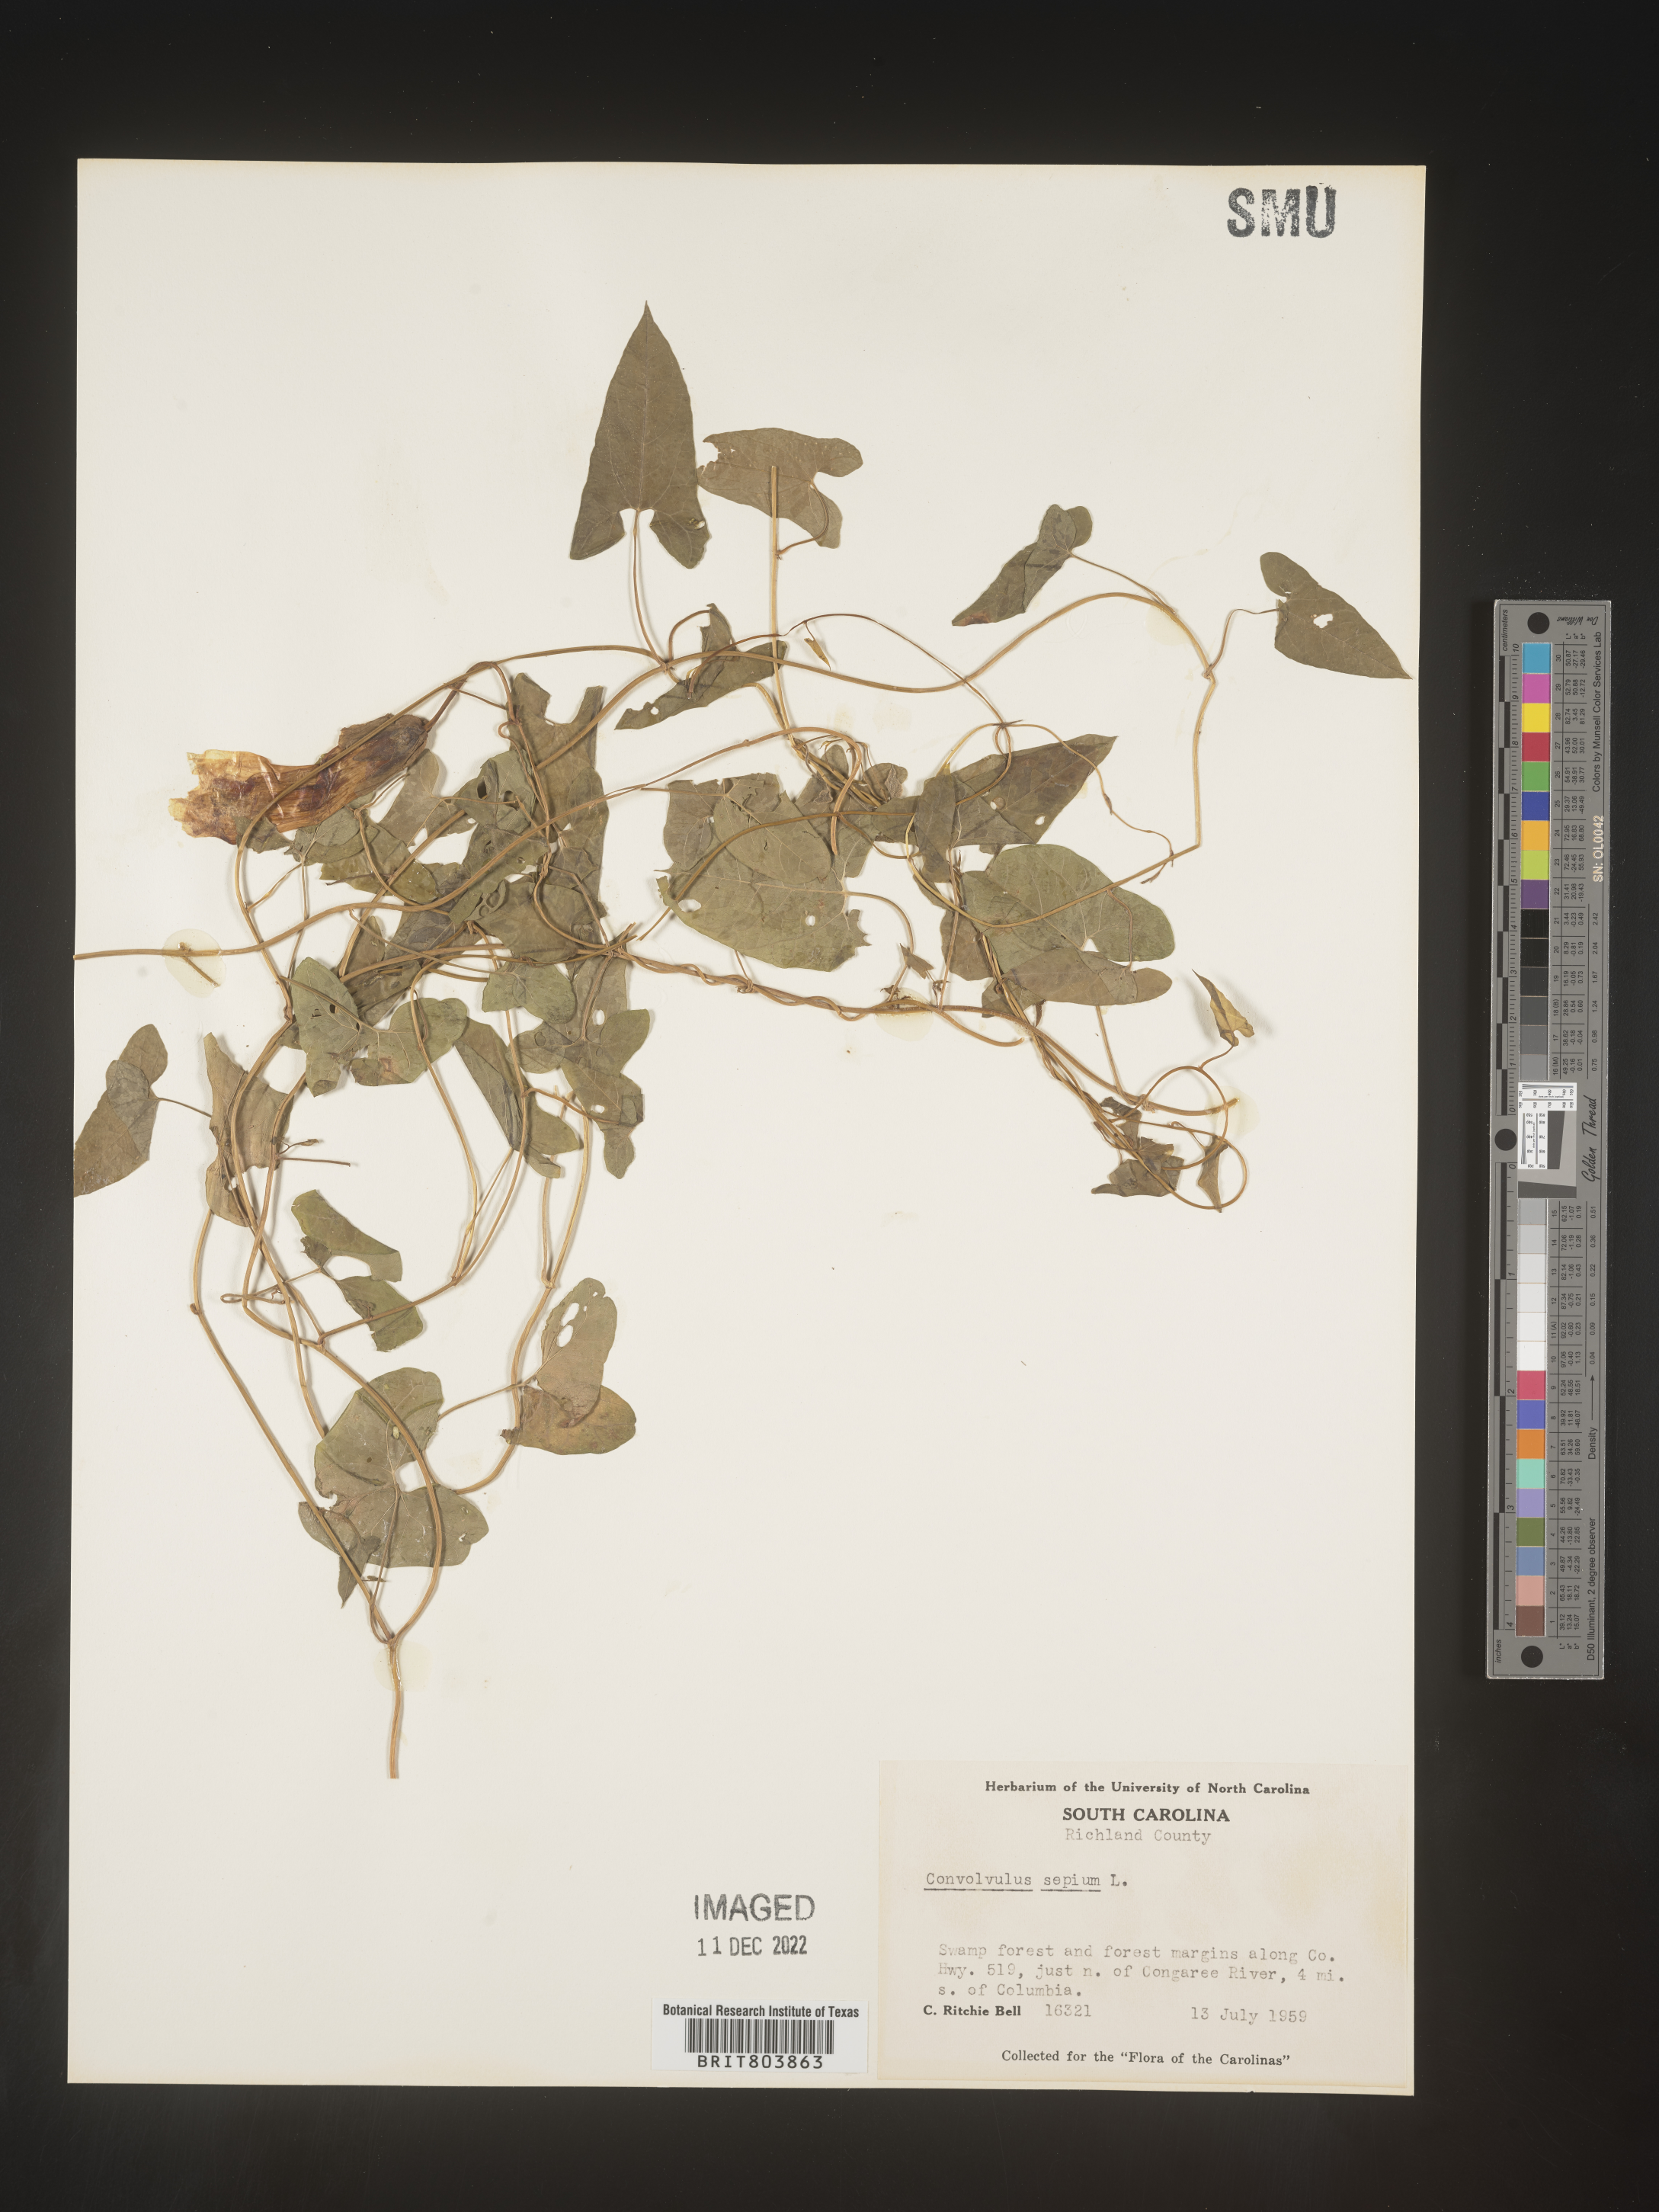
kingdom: Plantae
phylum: Tracheophyta
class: Magnoliopsida
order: Solanales
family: Convolvulaceae
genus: Calystegia
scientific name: Calystegia sepium
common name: Hedge bindweed
